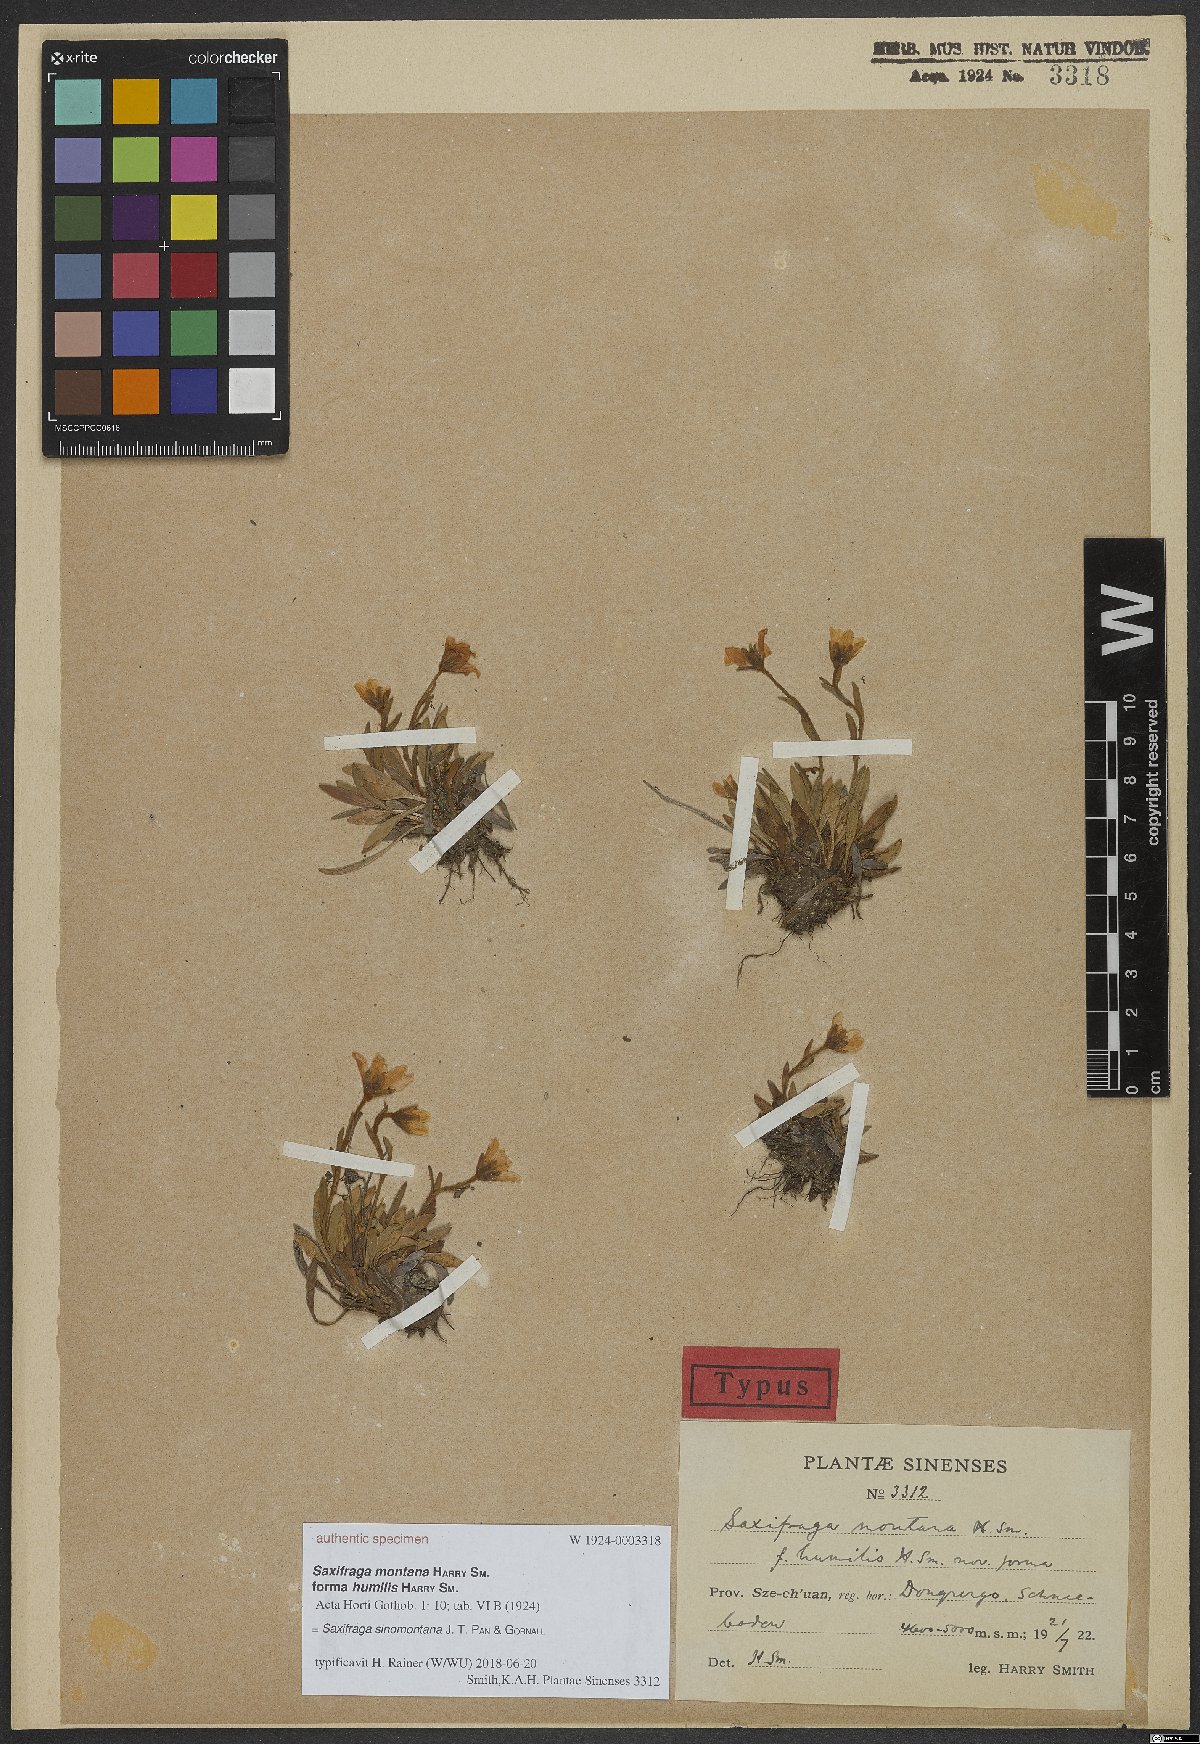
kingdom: Plantae
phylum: Tracheophyta
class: Magnoliopsida
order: Saxifragales
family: Saxifragaceae
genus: Saxifraga
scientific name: Saxifraga sinomontana
